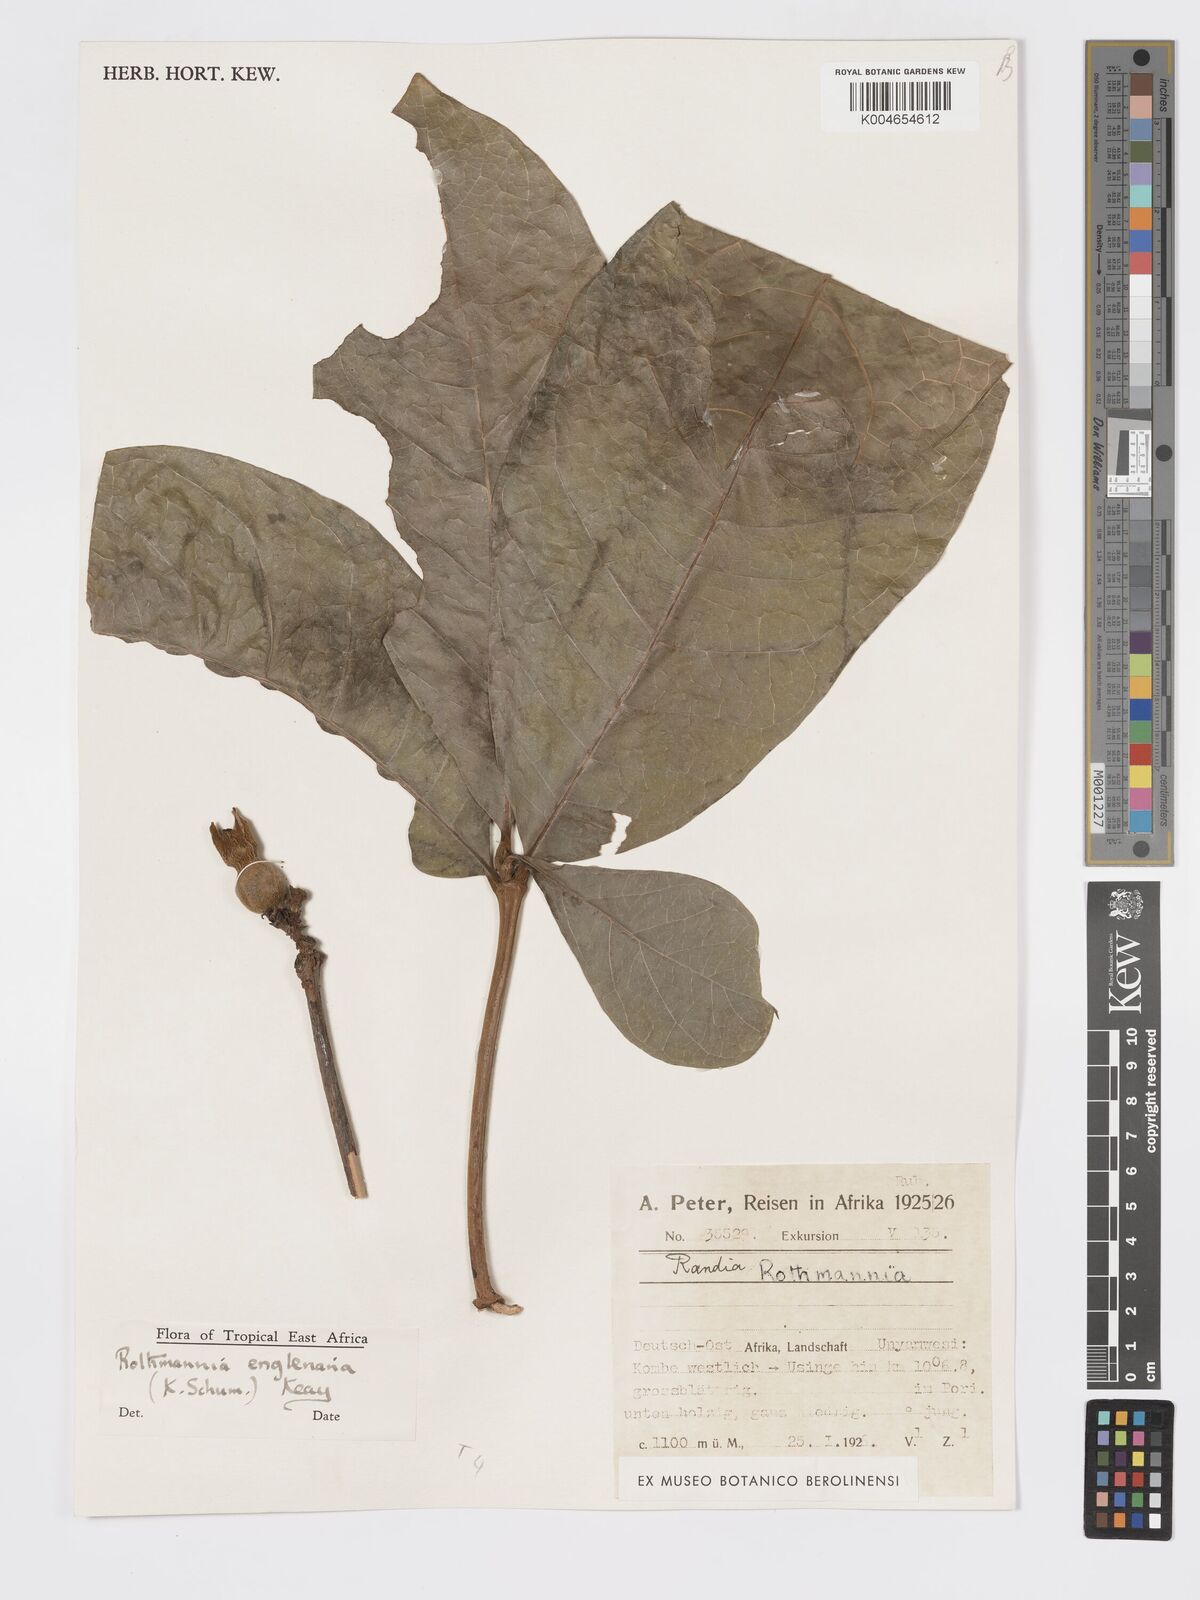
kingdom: Plantae
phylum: Tracheophyta
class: Magnoliopsida
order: Gentianales
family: Rubiaceae
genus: Rothmannia
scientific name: Rothmannia engleriana
